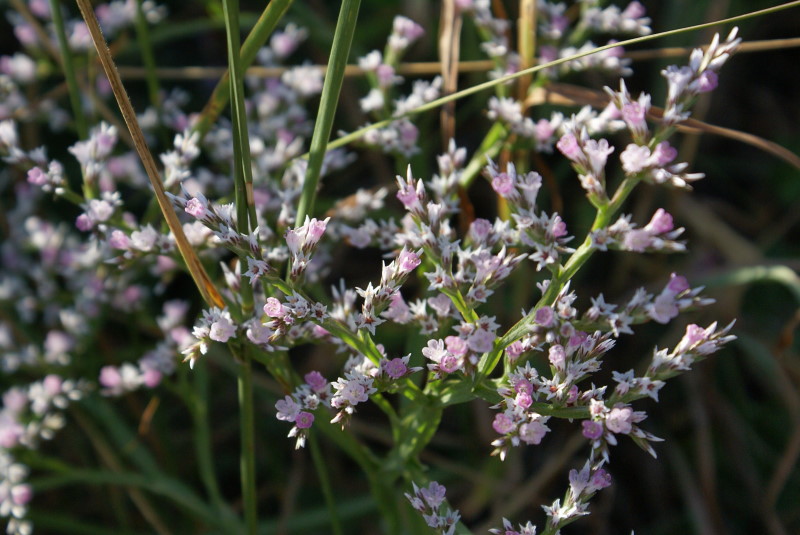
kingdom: Plantae
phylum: Tracheophyta
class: Magnoliopsida
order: Caryophyllales
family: Plumbaginaceae
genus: Goniolimon
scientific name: Goniolimon tauricum
